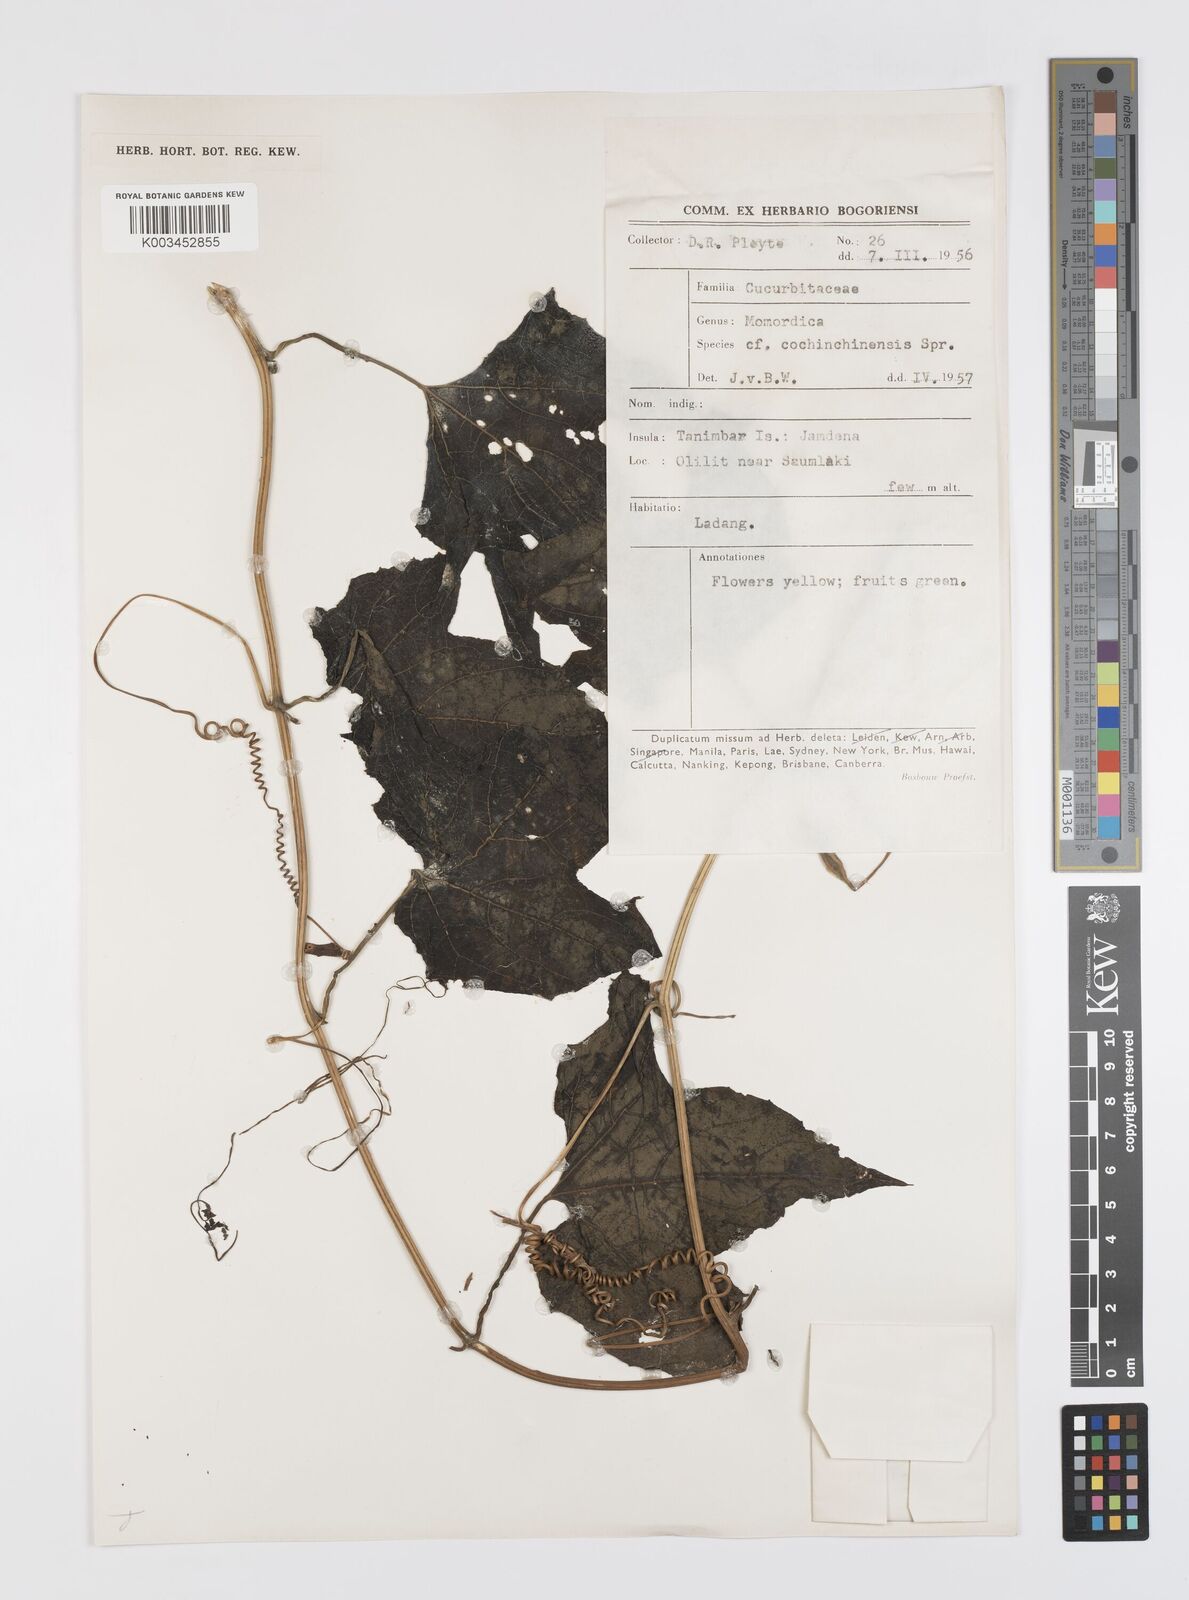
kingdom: Plantae
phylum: Tracheophyta
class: Magnoliopsida
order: Cucurbitales
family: Cucurbitaceae
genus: Momordica
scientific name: Momordica cochinchinensis
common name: Chinese bitter-cucumber
